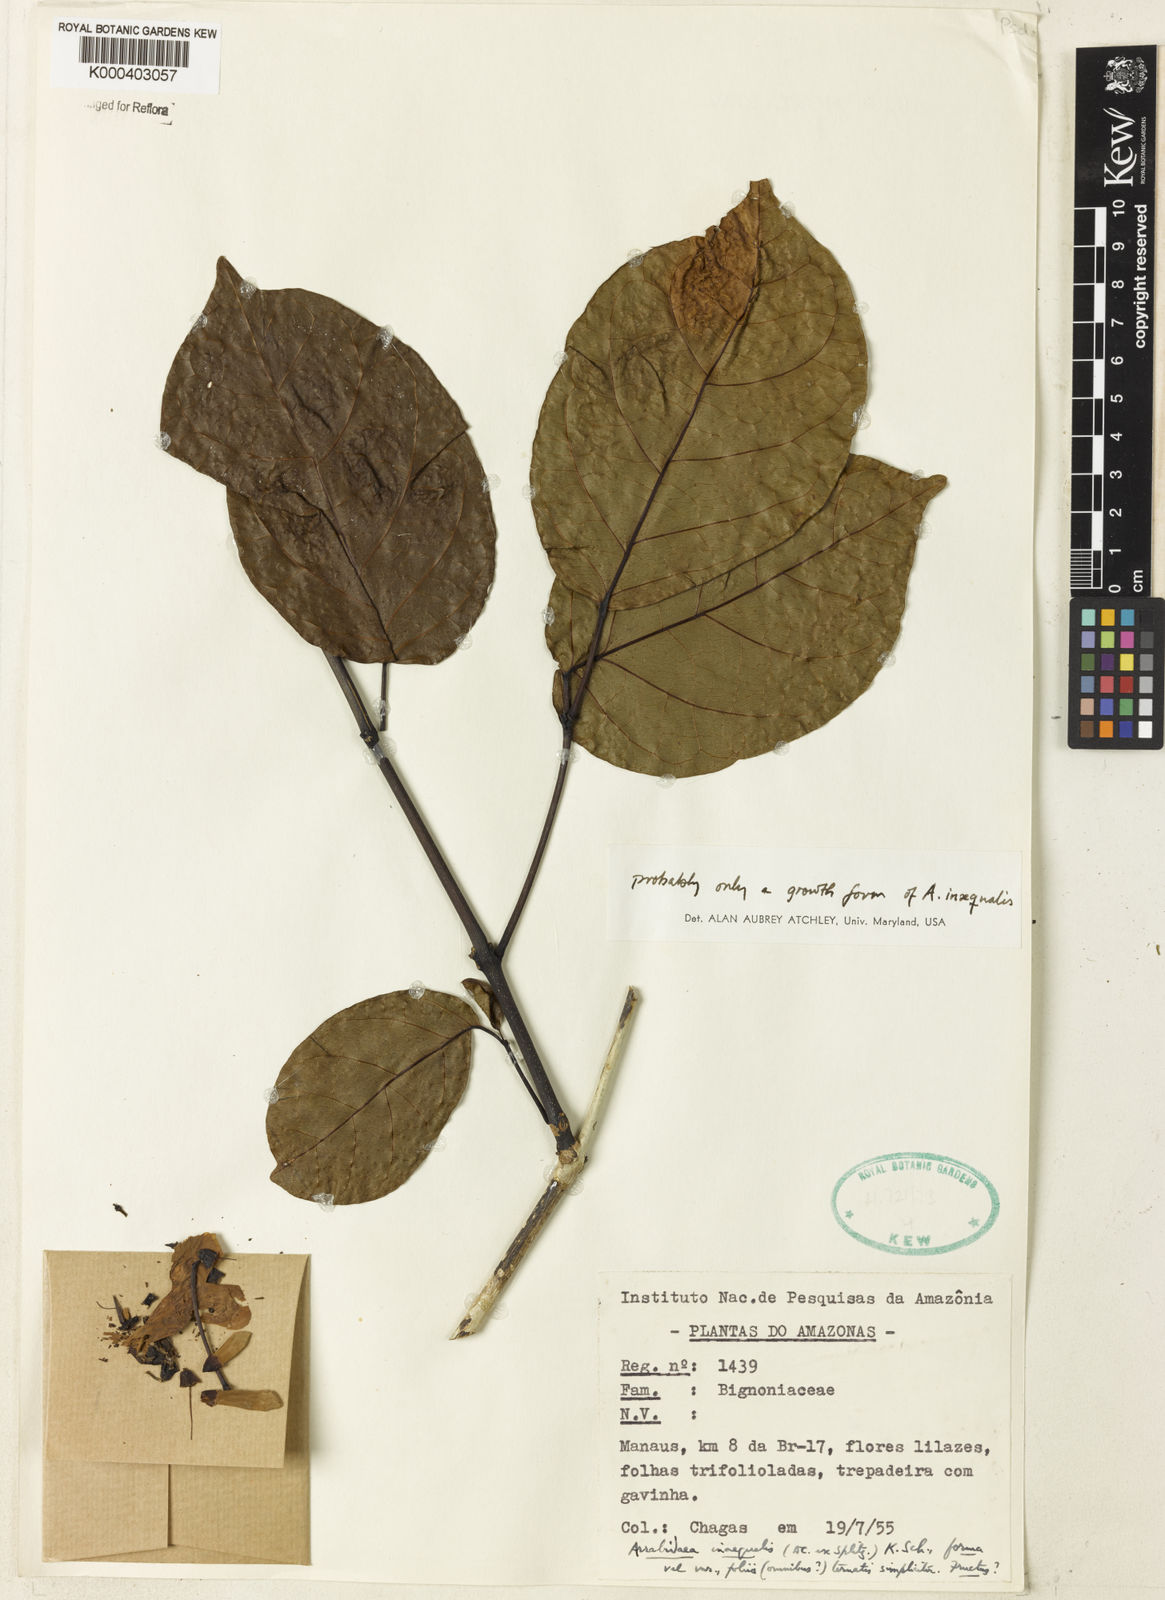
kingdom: Plantae
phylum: Tracheophyta
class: Magnoliopsida
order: Lamiales
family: Bignoniaceae
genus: Cuspidaria
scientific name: Cuspidaria inaequalis
